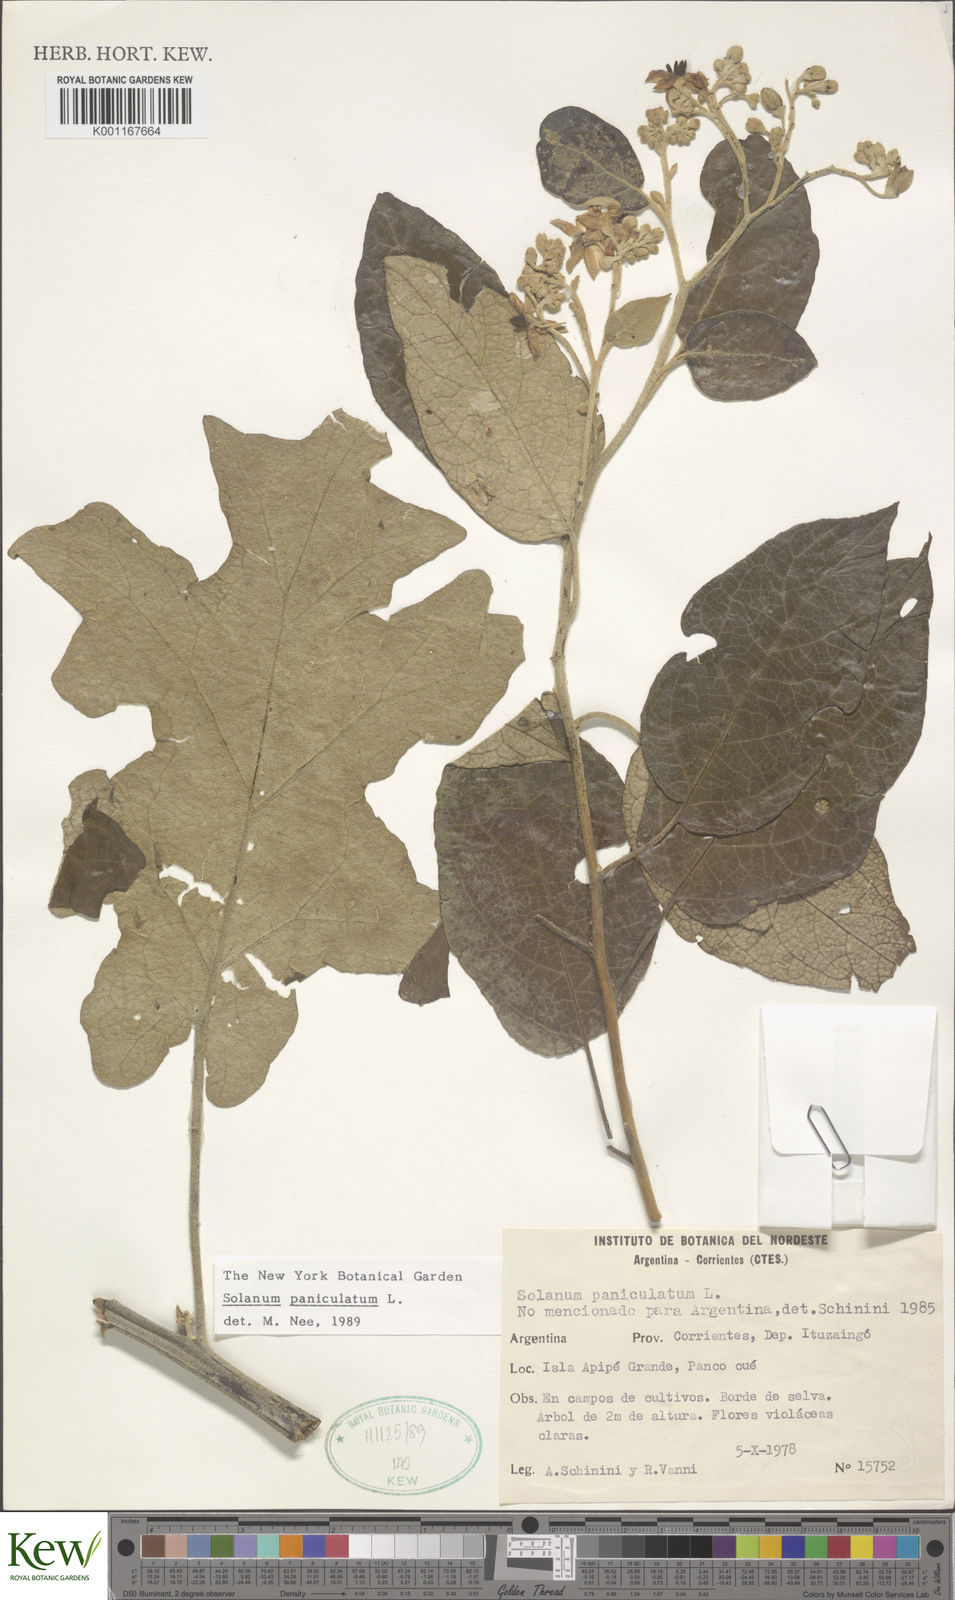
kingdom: Plantae
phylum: Tracheophyta
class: Magnoliopsida
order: Solanales
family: Solanaceae
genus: Solanum
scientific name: Solanum paniculatum
